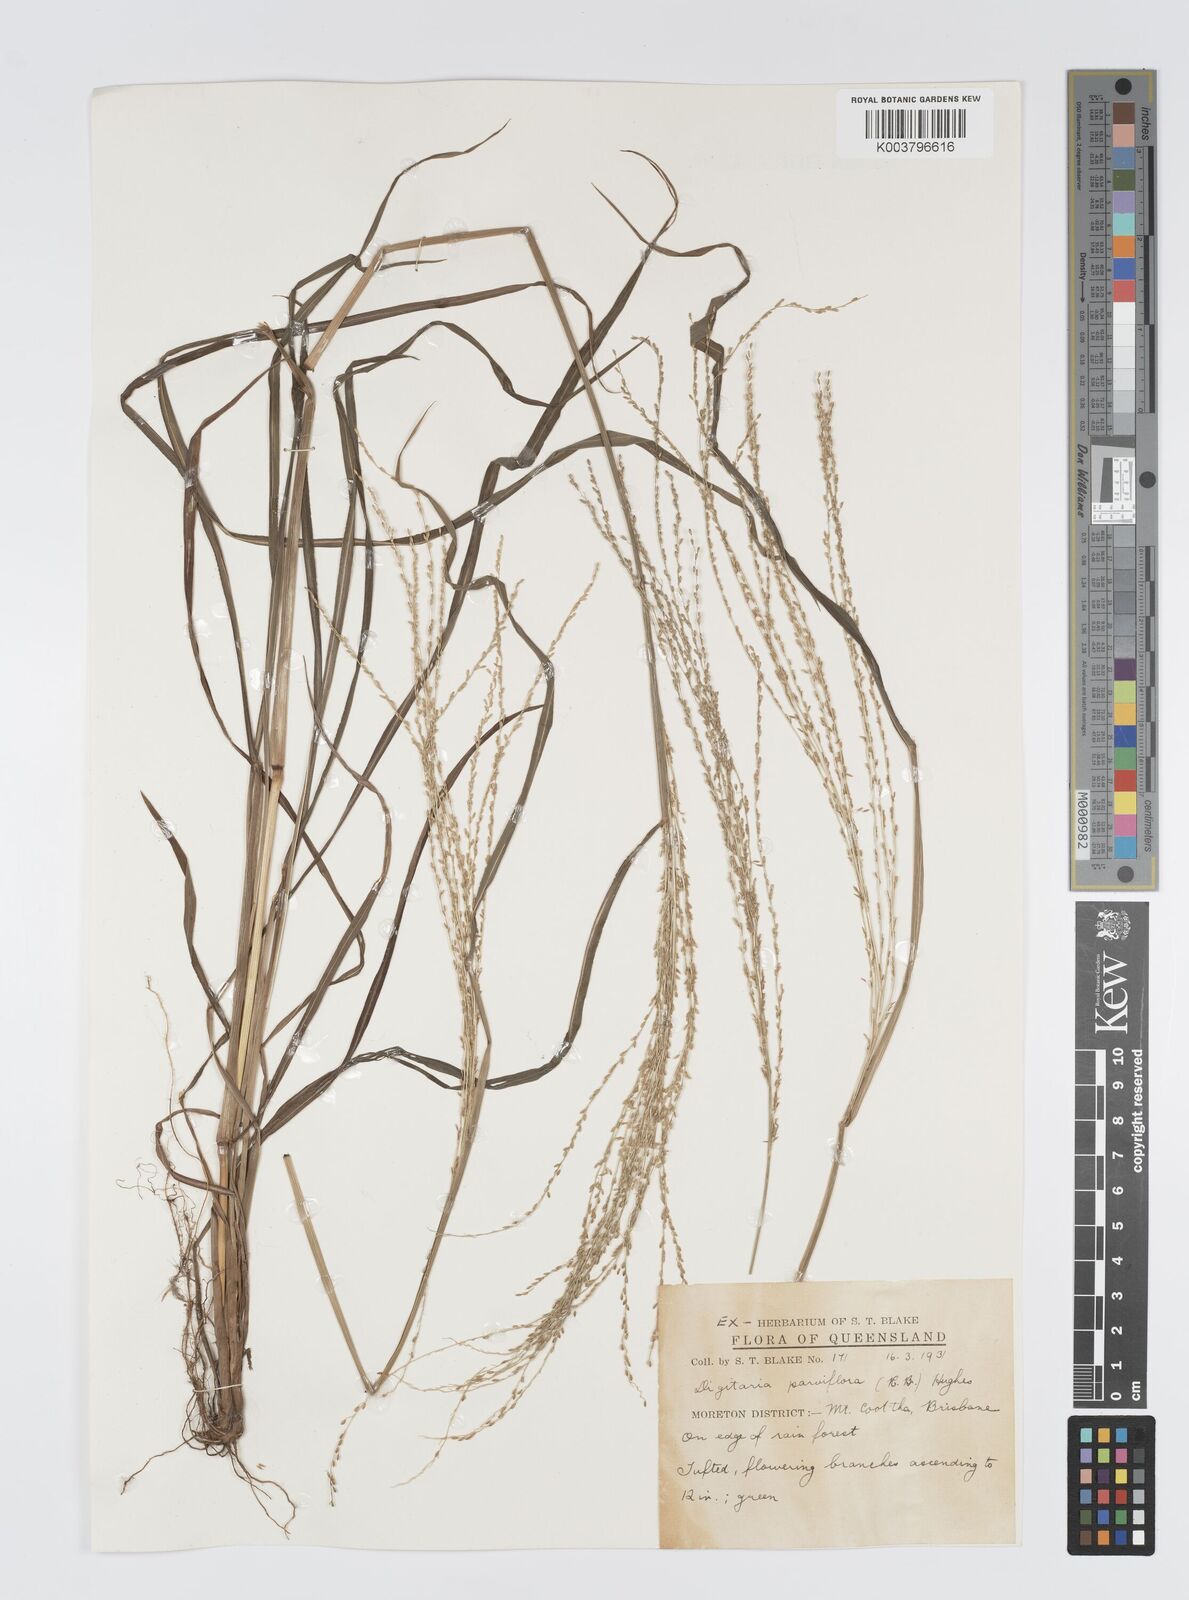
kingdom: Plantae
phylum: Tracheophyta
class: Liliopsida
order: Poales
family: Poaceae
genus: Digitaria
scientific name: Digitaria parviflora
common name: Small-flower finger grass
